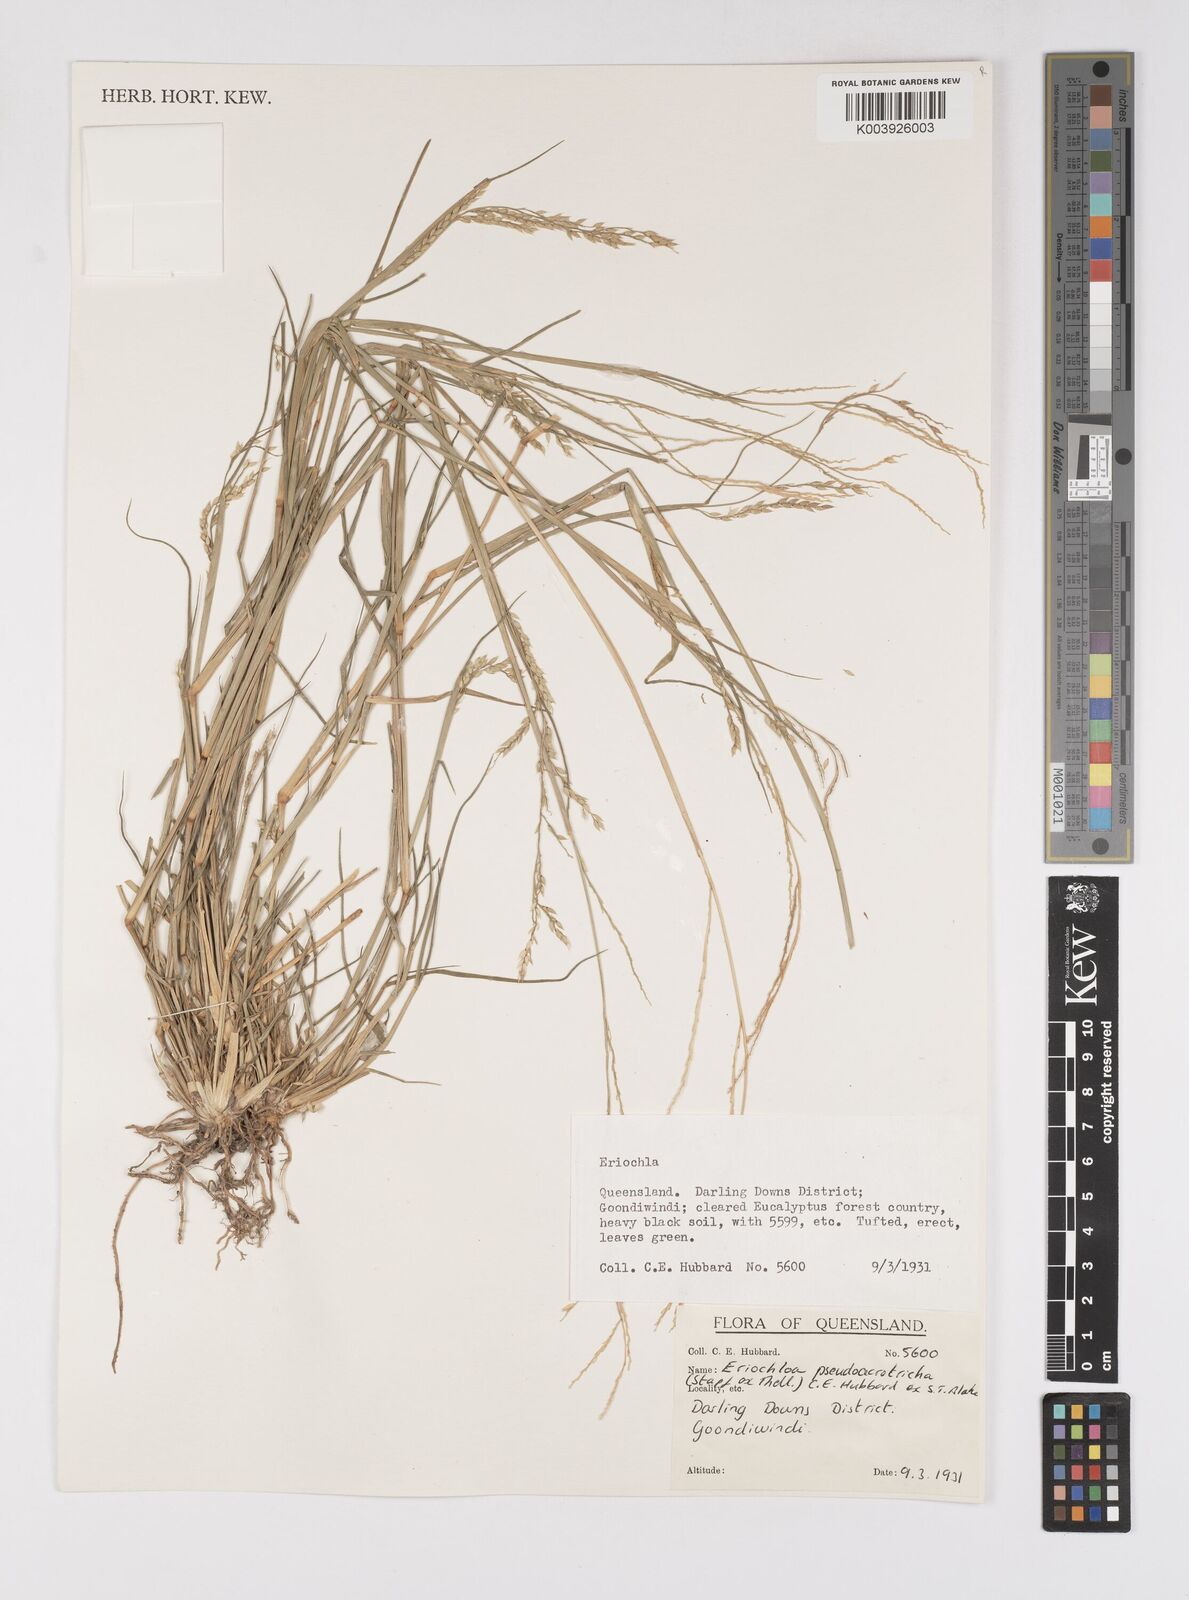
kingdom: Plantae
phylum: Tracheophyta
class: Liliopsida
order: Poales
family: Poaceae
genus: Eriochloa
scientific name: Eriochloa pseudoacrotricha
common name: Perennial cup-grass
